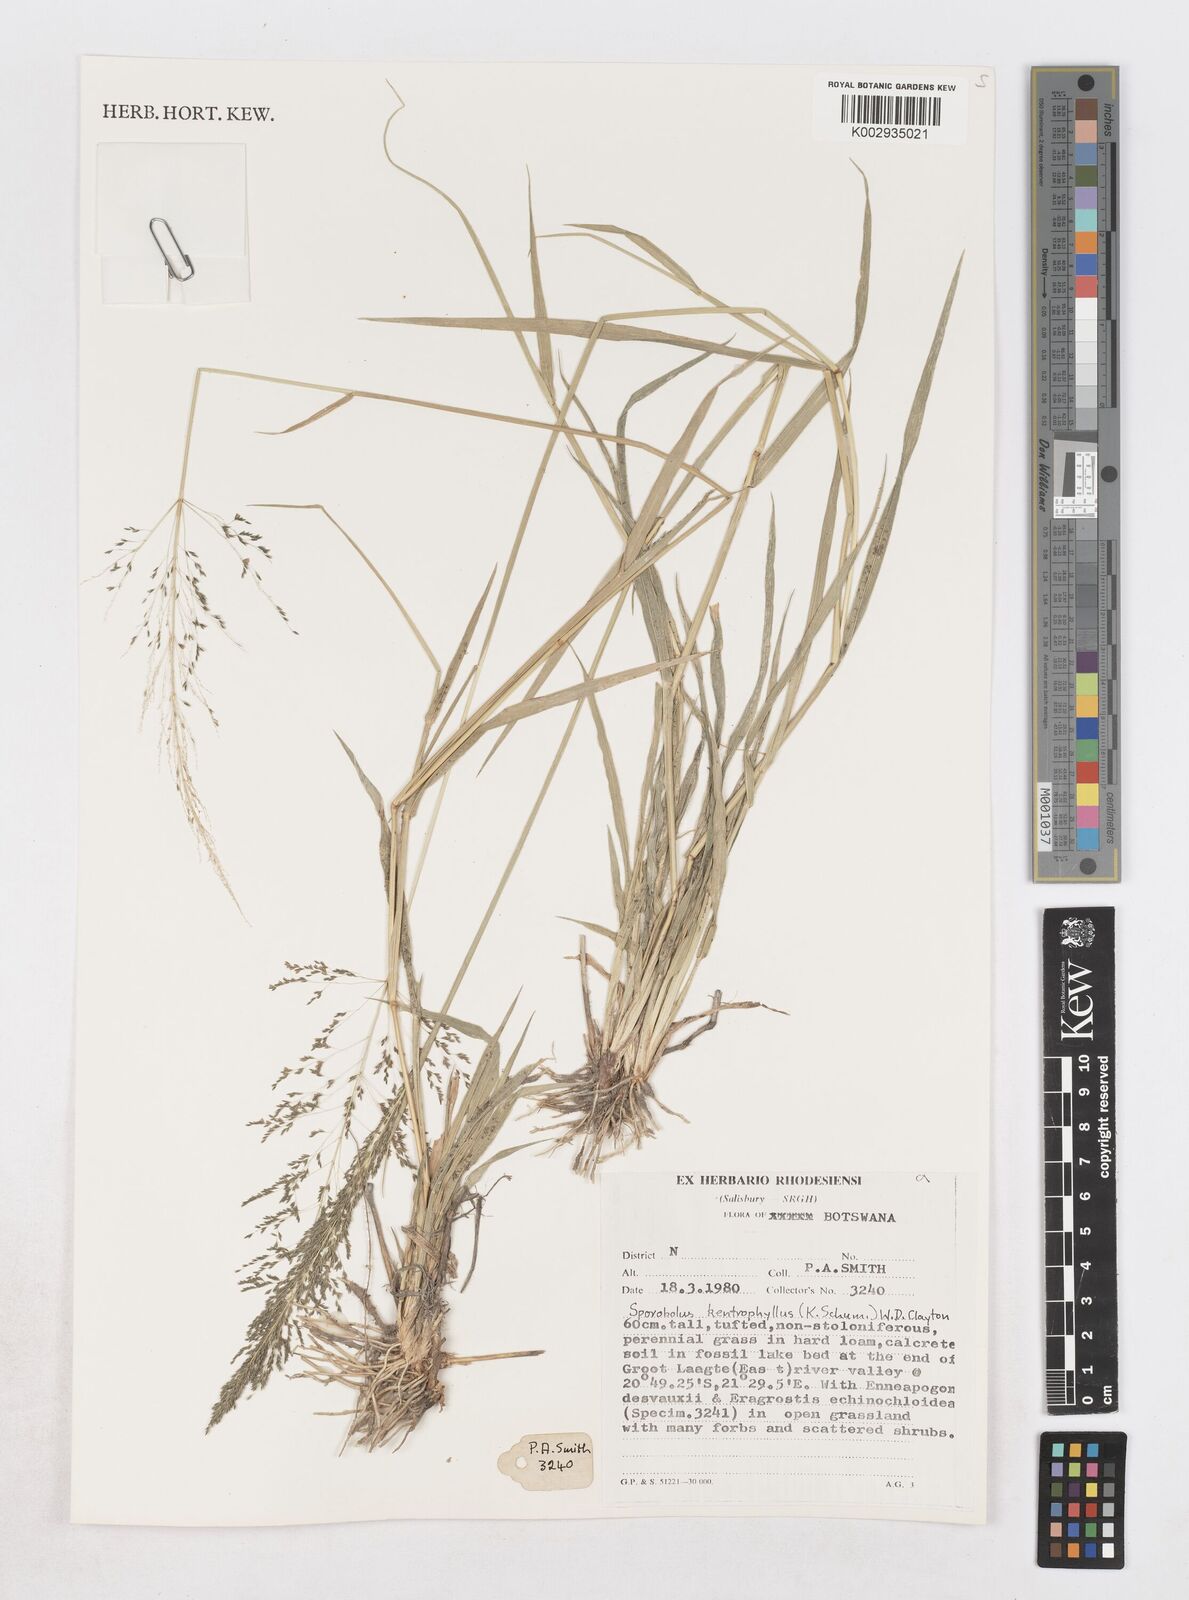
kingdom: Plantae
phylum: Tracheophyta
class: Liliopsida
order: Poales
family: Poaceae
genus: Sporobolus
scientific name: Sporobolus ioclados
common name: Pan dropseed
